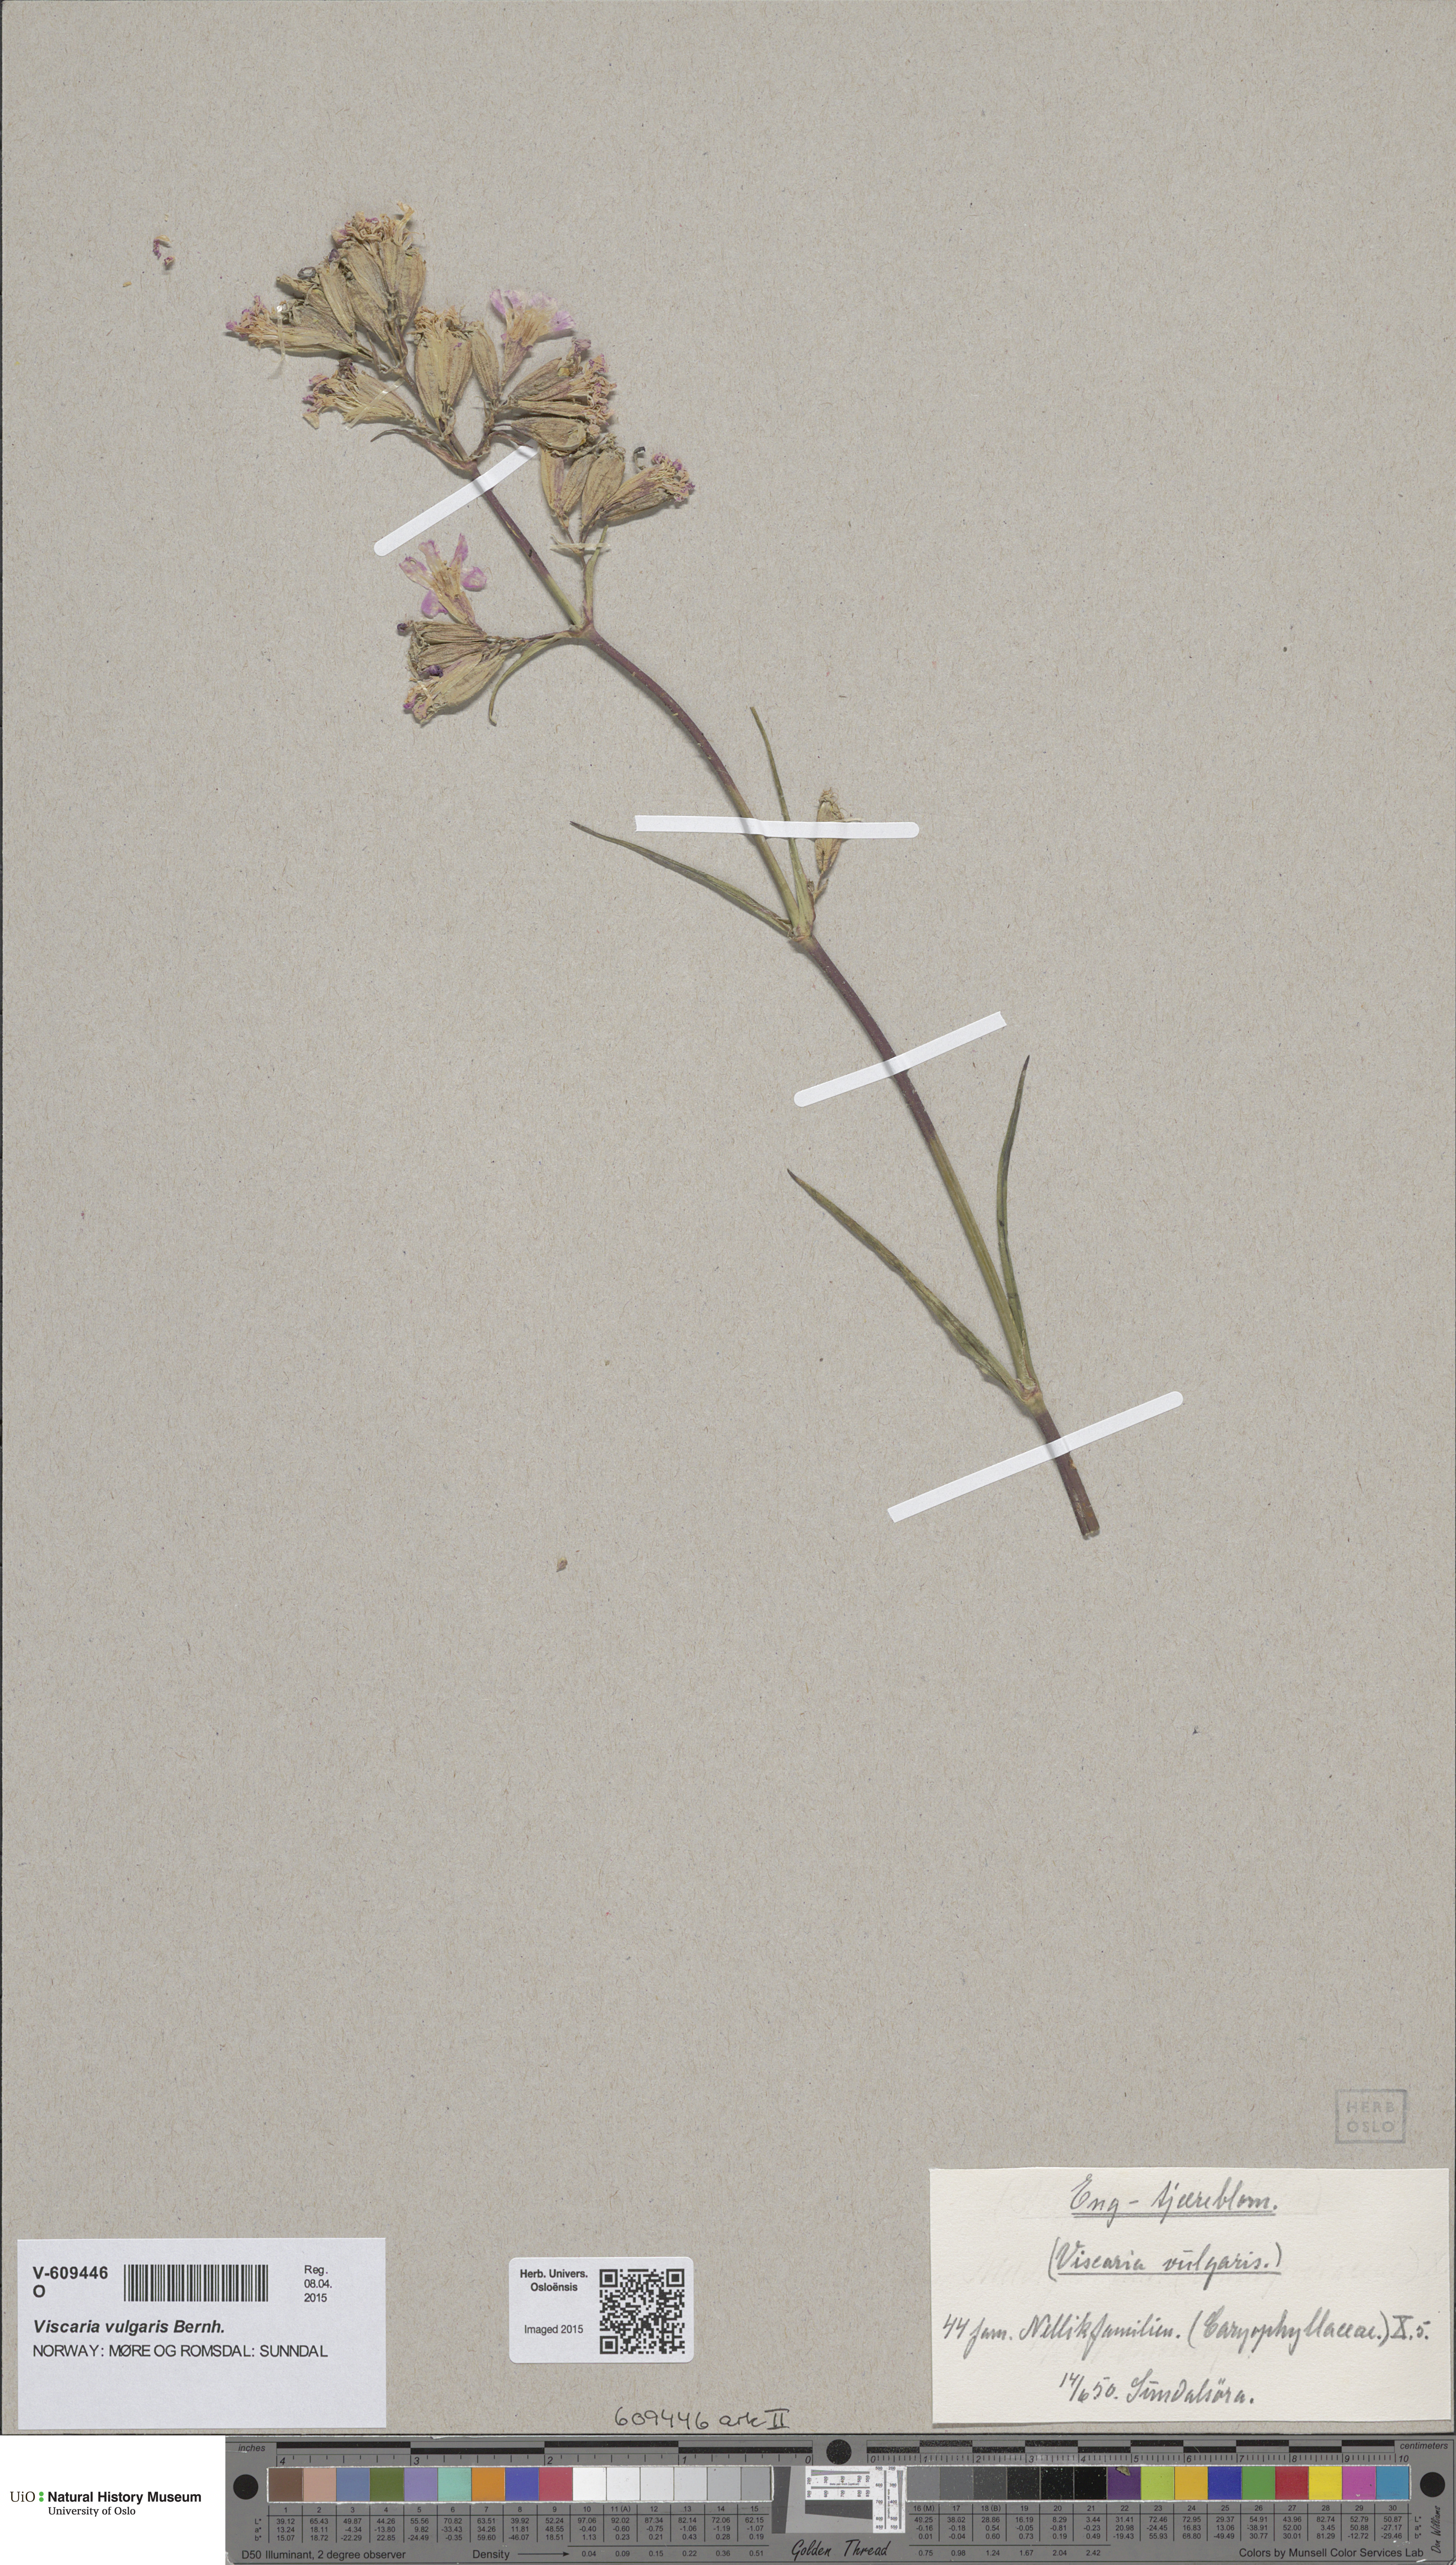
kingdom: Plantae
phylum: Tracheophyta
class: Magnoliopsida
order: Caryophyllales
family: Caryophyllaceae
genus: Viscaria
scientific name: Viscaria vulgaris
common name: Clammy campion
